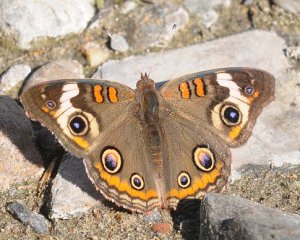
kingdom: Animalia
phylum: Arthropoda
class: Insecta
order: Lepidoptera
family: Nymphalidae
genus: Junonia
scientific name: Junonia coenia
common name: Common Buckeye
